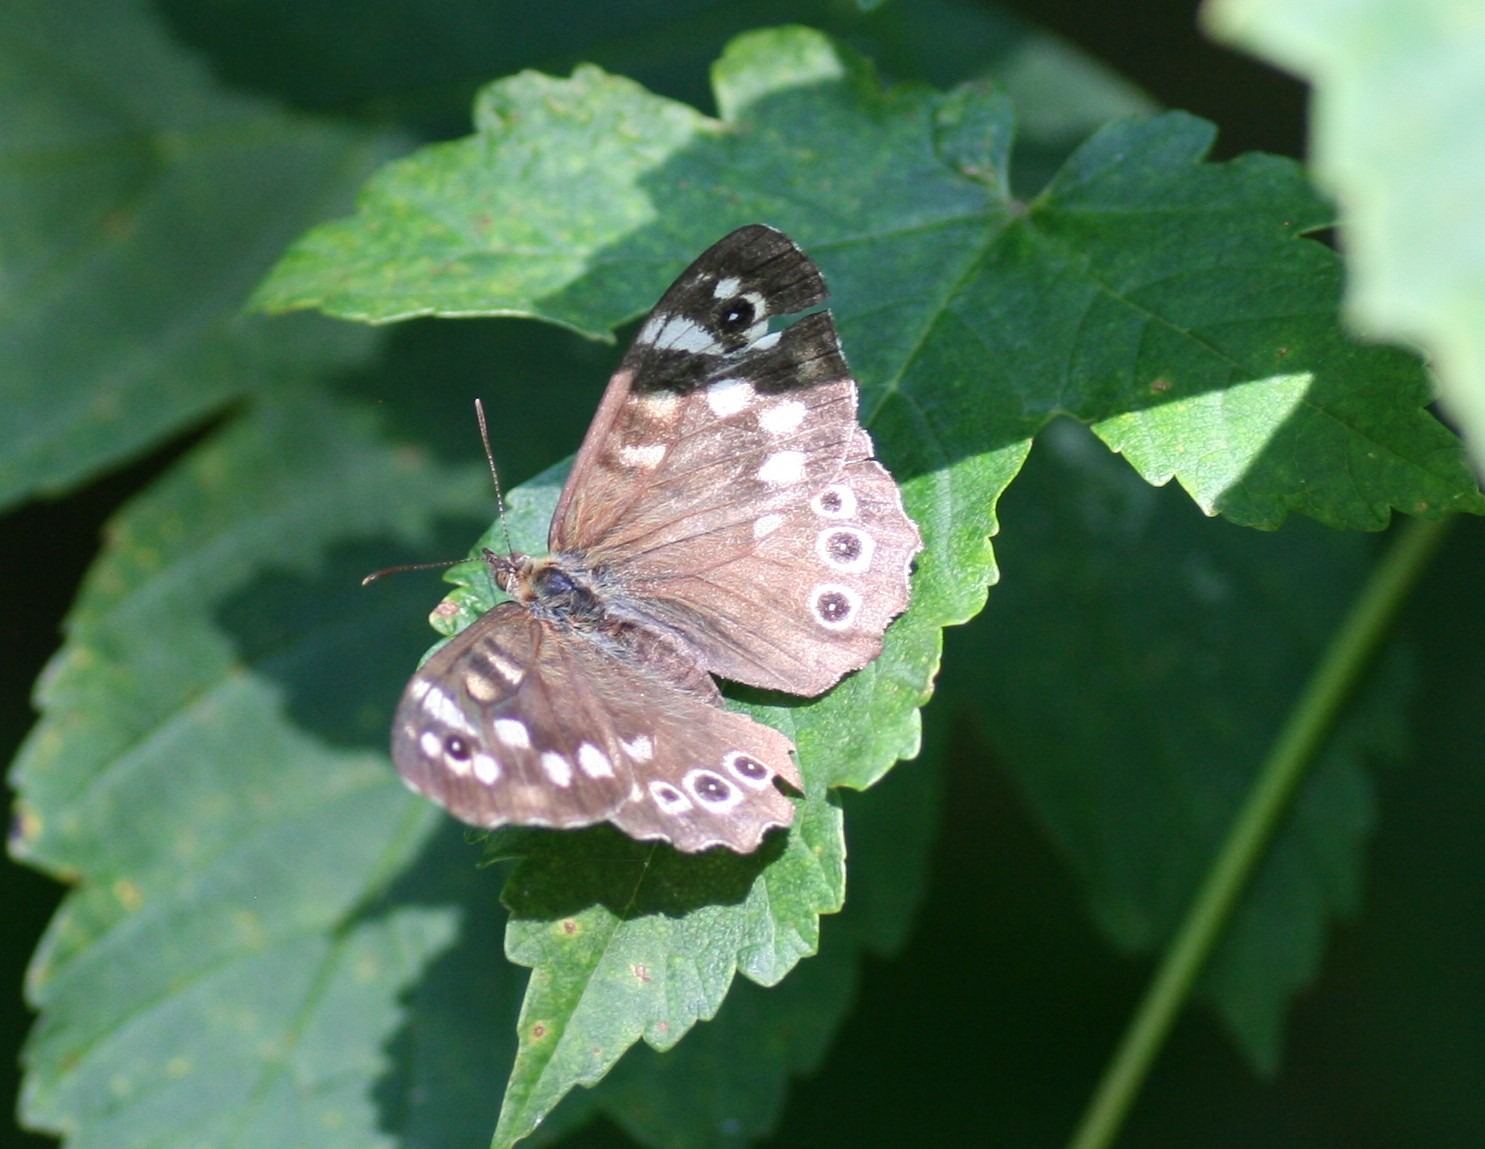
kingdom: Animalia
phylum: Arthropoda
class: Insecta
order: Lepidoptera
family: Nymphalidae
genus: Pararge
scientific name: Pararge aegeria
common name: Skovrandøje
